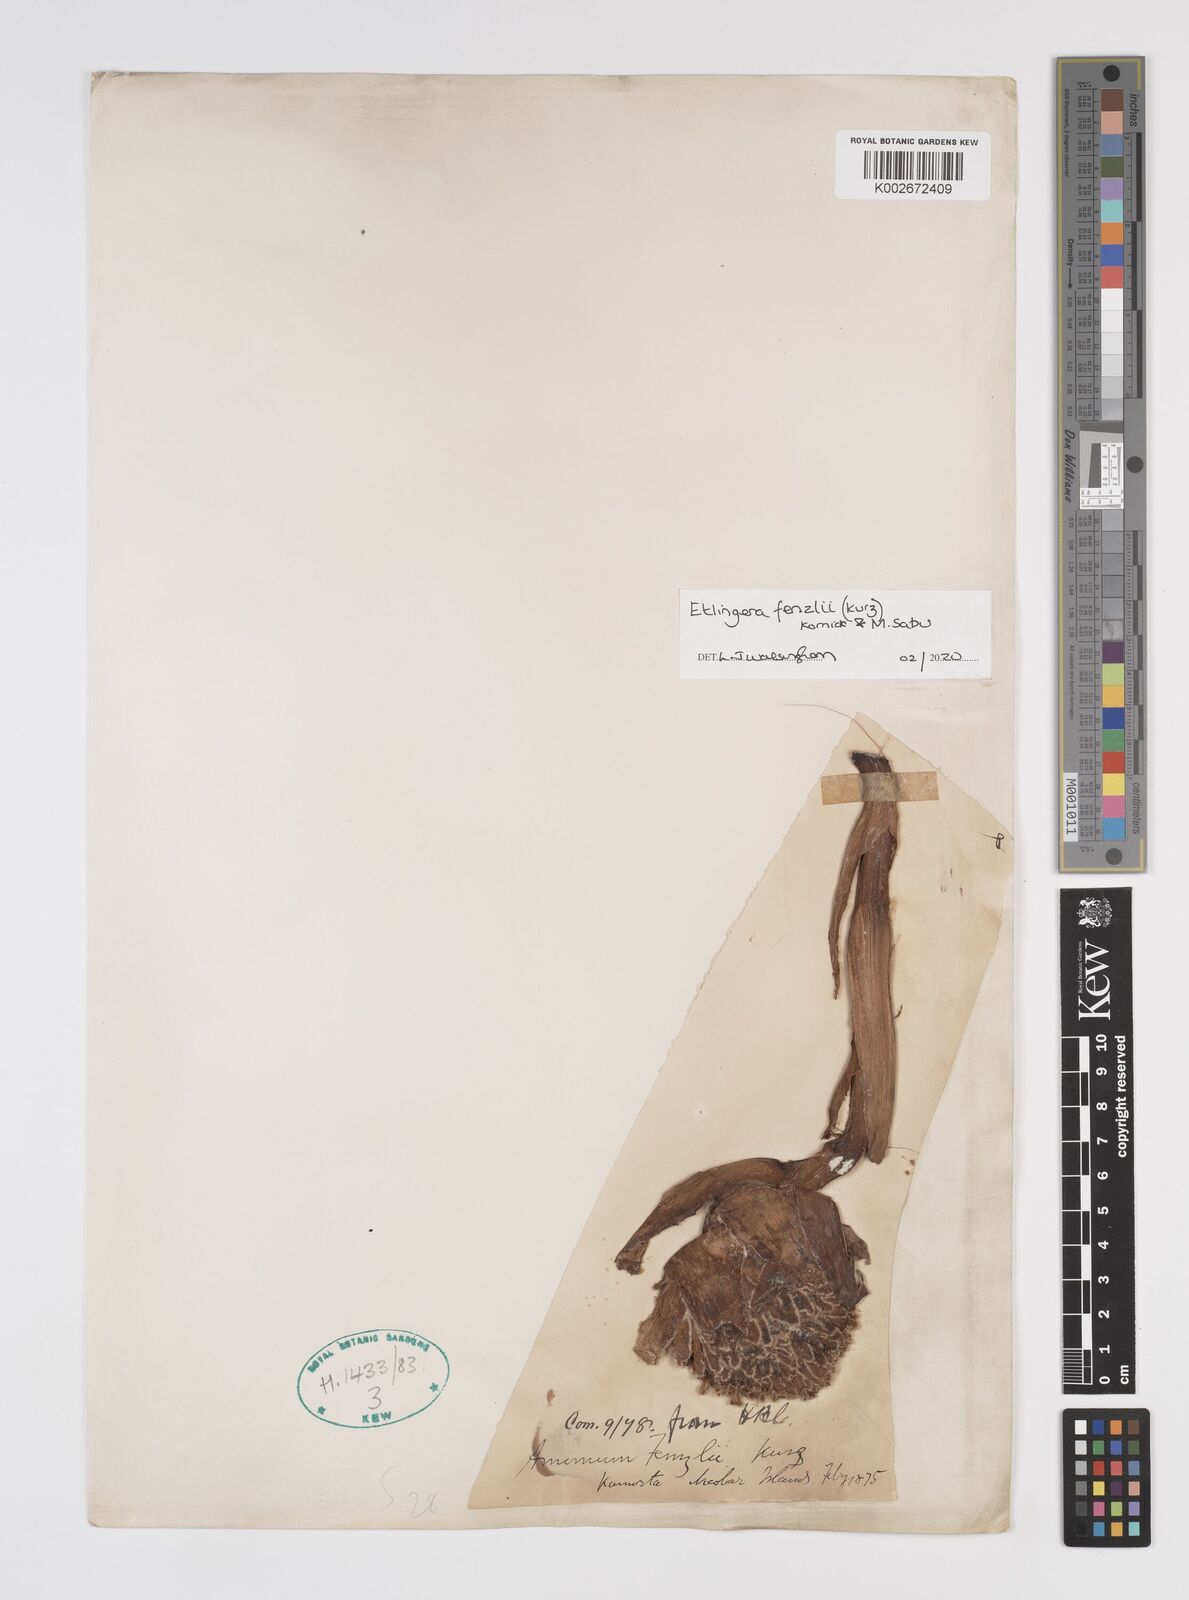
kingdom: Plantae
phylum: Tracheophyta
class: Liliopsida
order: Zingiberales
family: Zingiberaceae
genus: Etlingera
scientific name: Etlingera fenzlii
